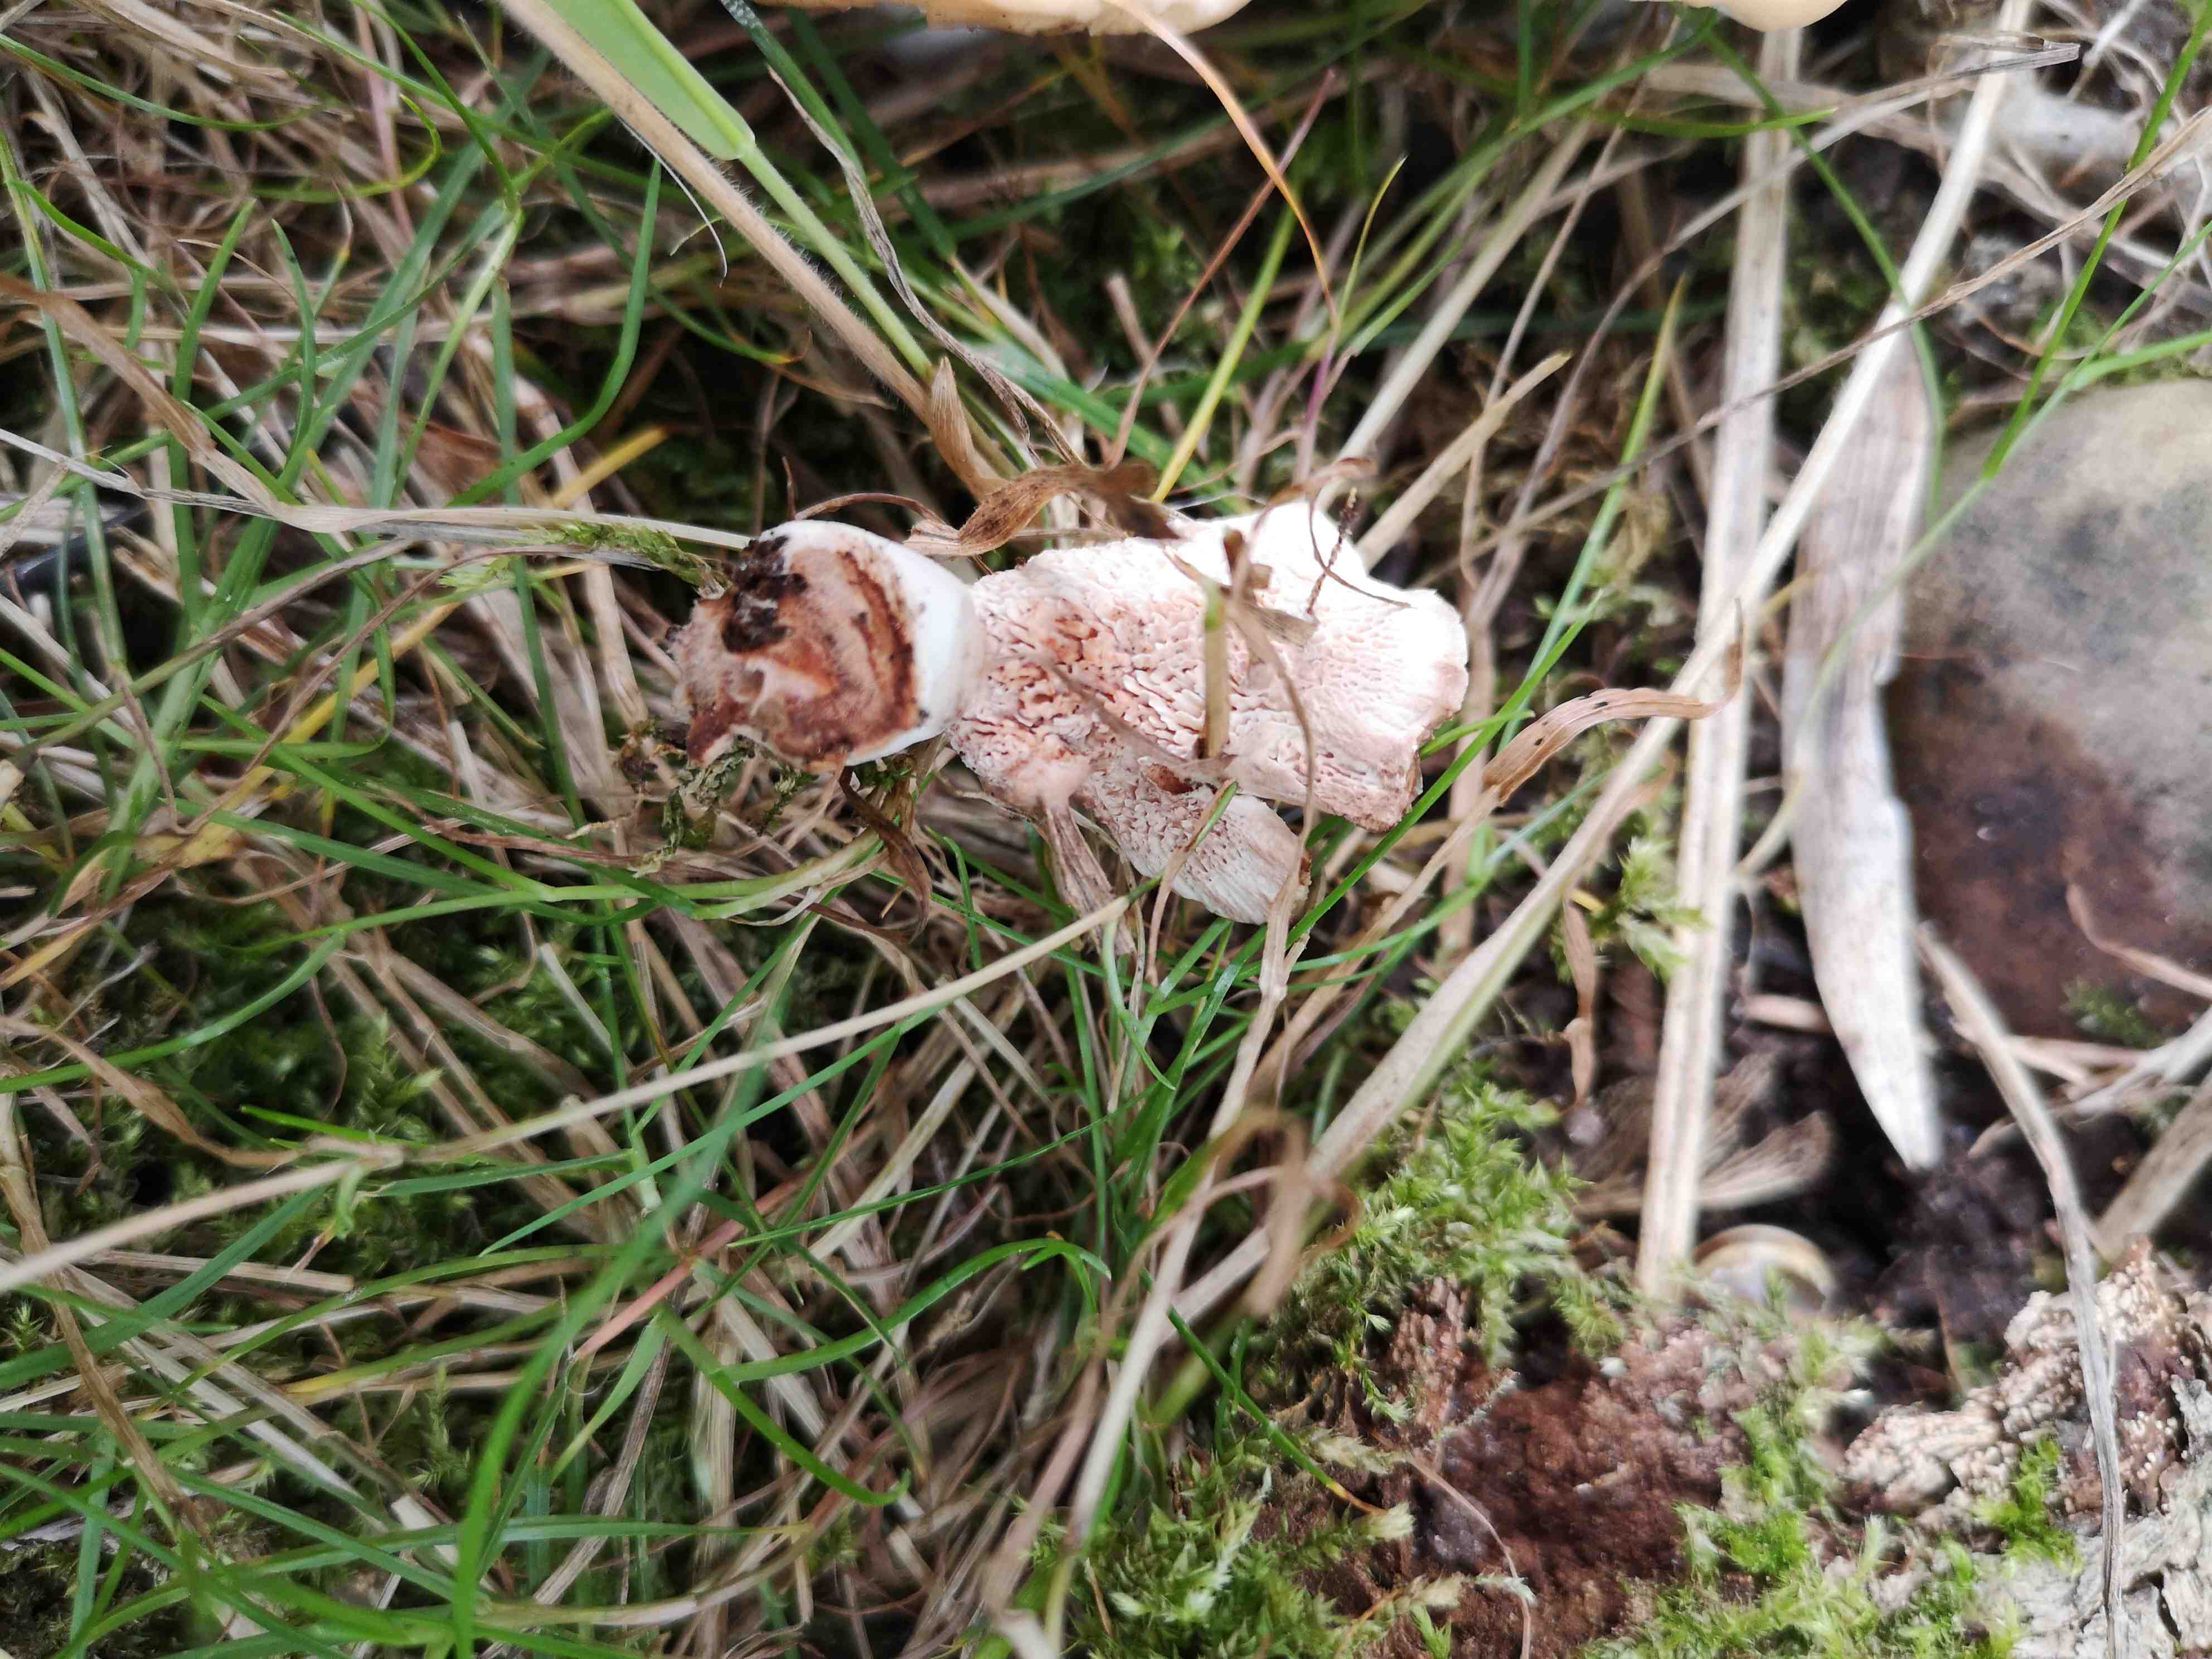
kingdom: Fungi
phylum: Basidiomycota
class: Agaricomycetes
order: Polyporales
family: Podoscyphaceae
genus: Abortiporus
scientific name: Abortiporus biennis
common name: rødmende pjalteporesvamp
